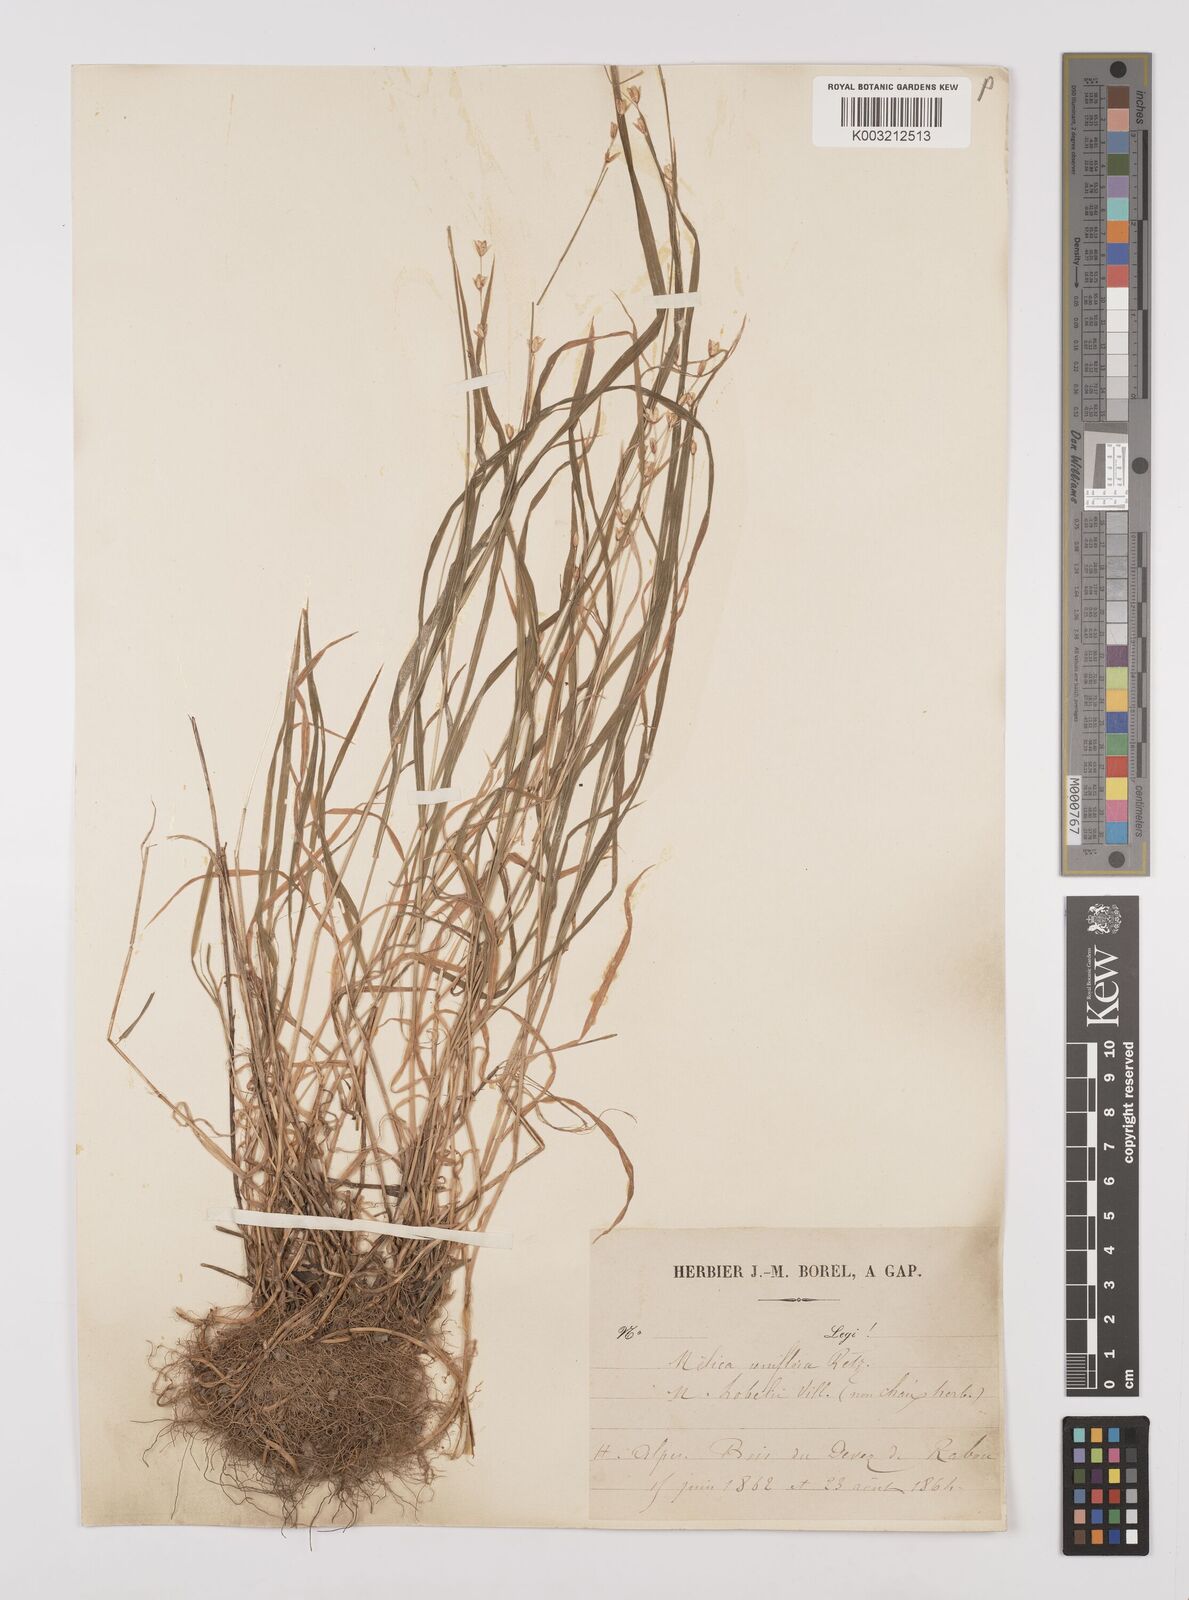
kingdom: Plantae
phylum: Tracheophyta
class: Liliopsida
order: Poales
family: Poaceae
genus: Melica
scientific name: Melica uniflora
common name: Wood melick
